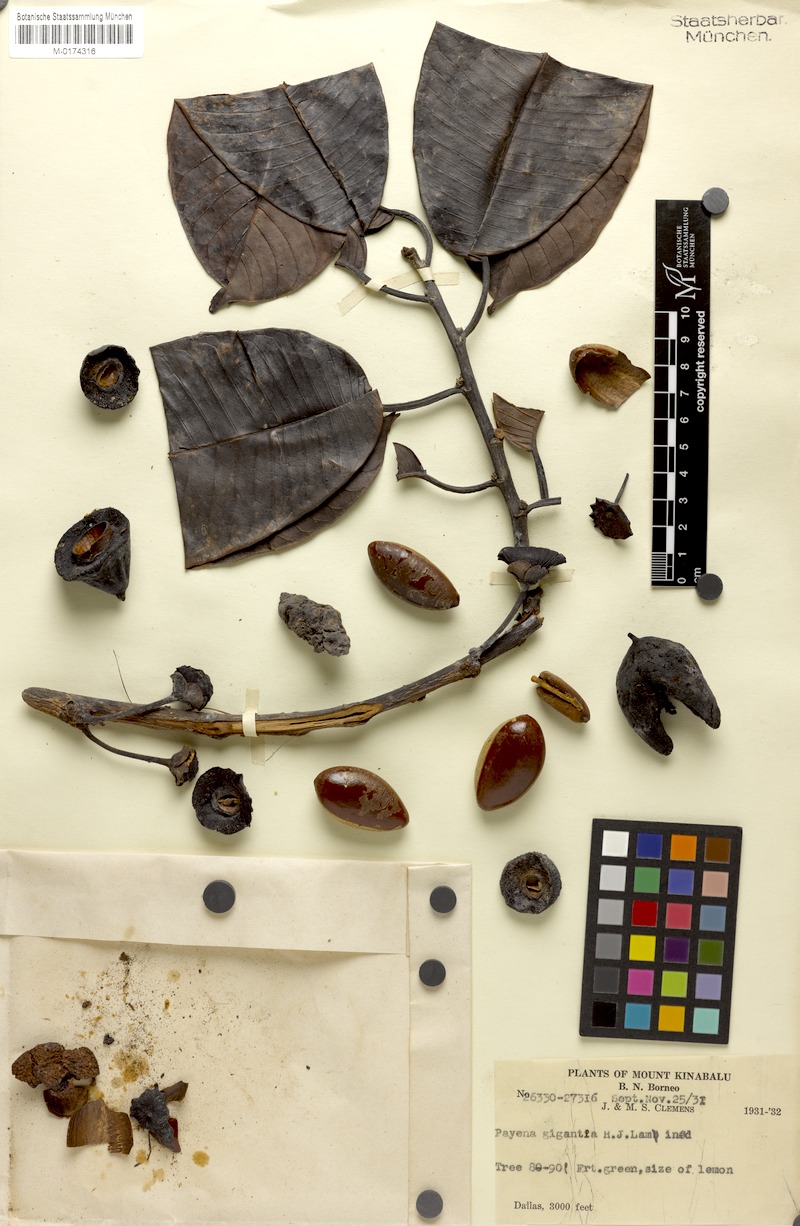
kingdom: Plantae
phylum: Tracheophyta
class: Magnoliopsida
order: Ericales
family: Sapotaceae
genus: Payena
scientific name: Payena gigas
